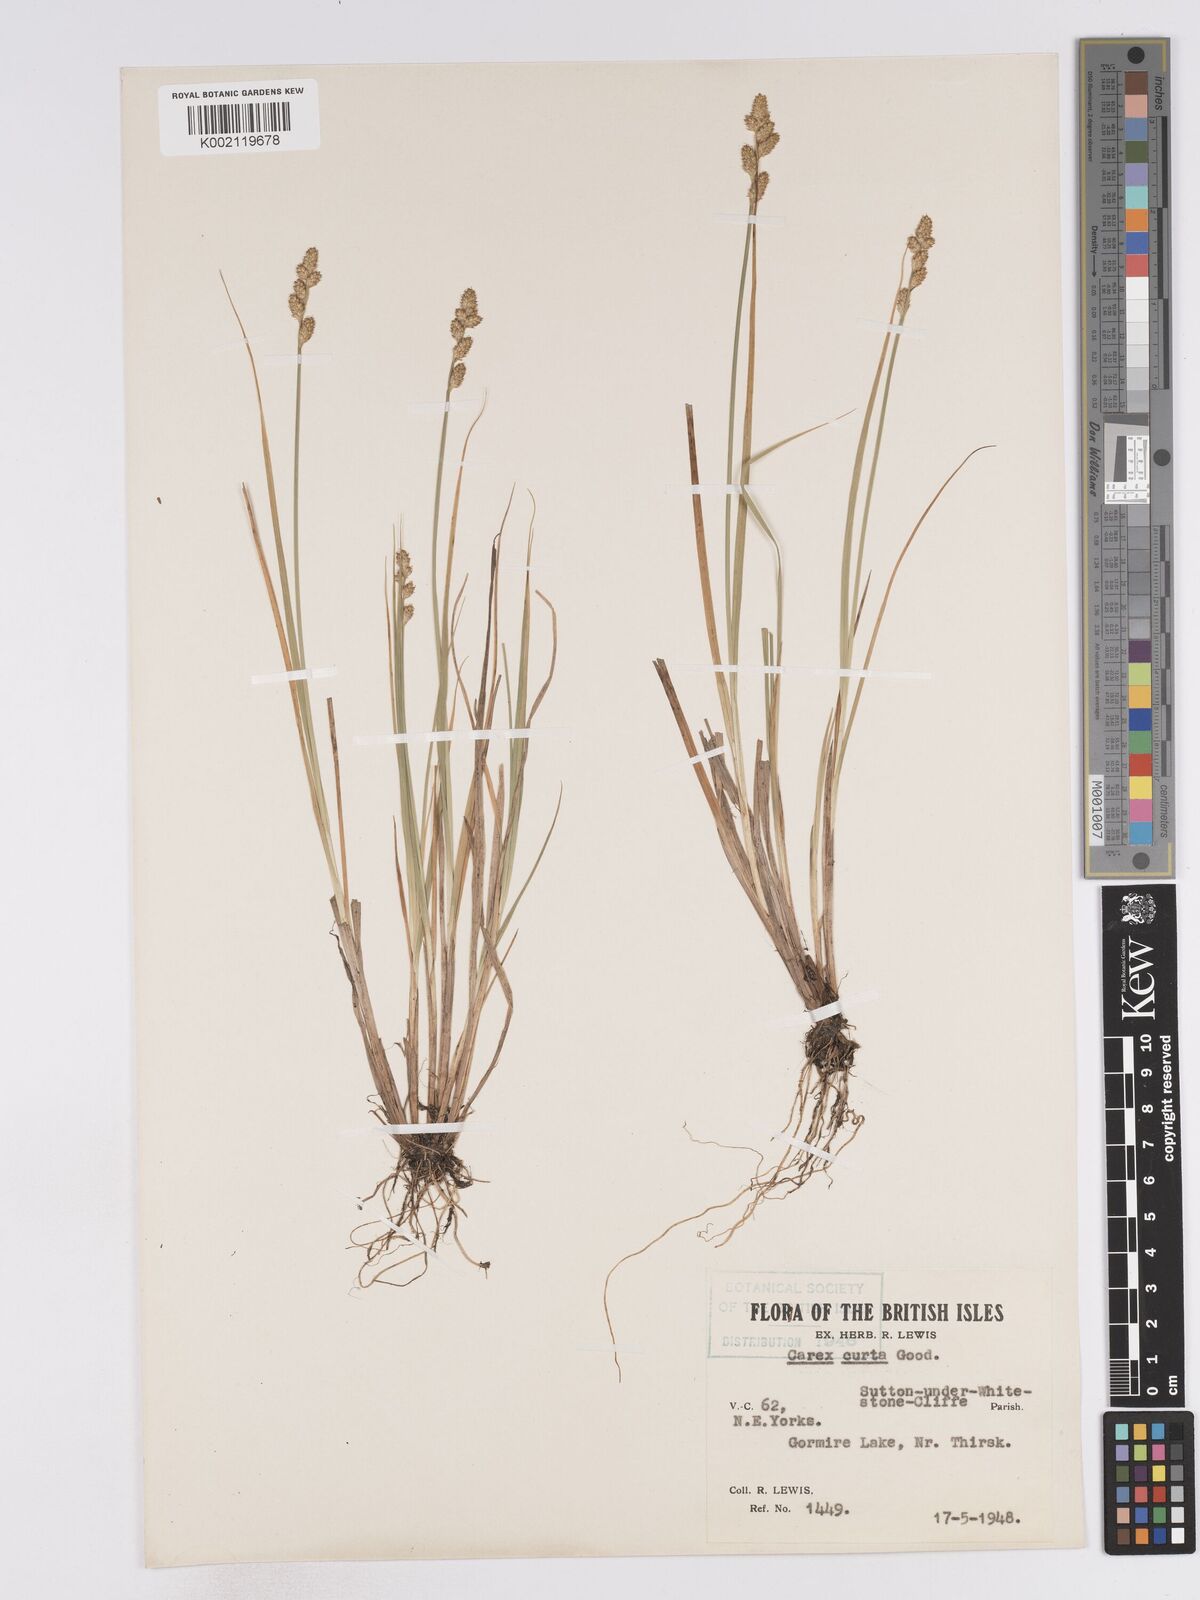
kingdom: Plantae
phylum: Tracheophyta
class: Liliopsida
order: Poales
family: Cyperaceae
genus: Carex
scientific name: Carex divulsa
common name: Grassland sedge
